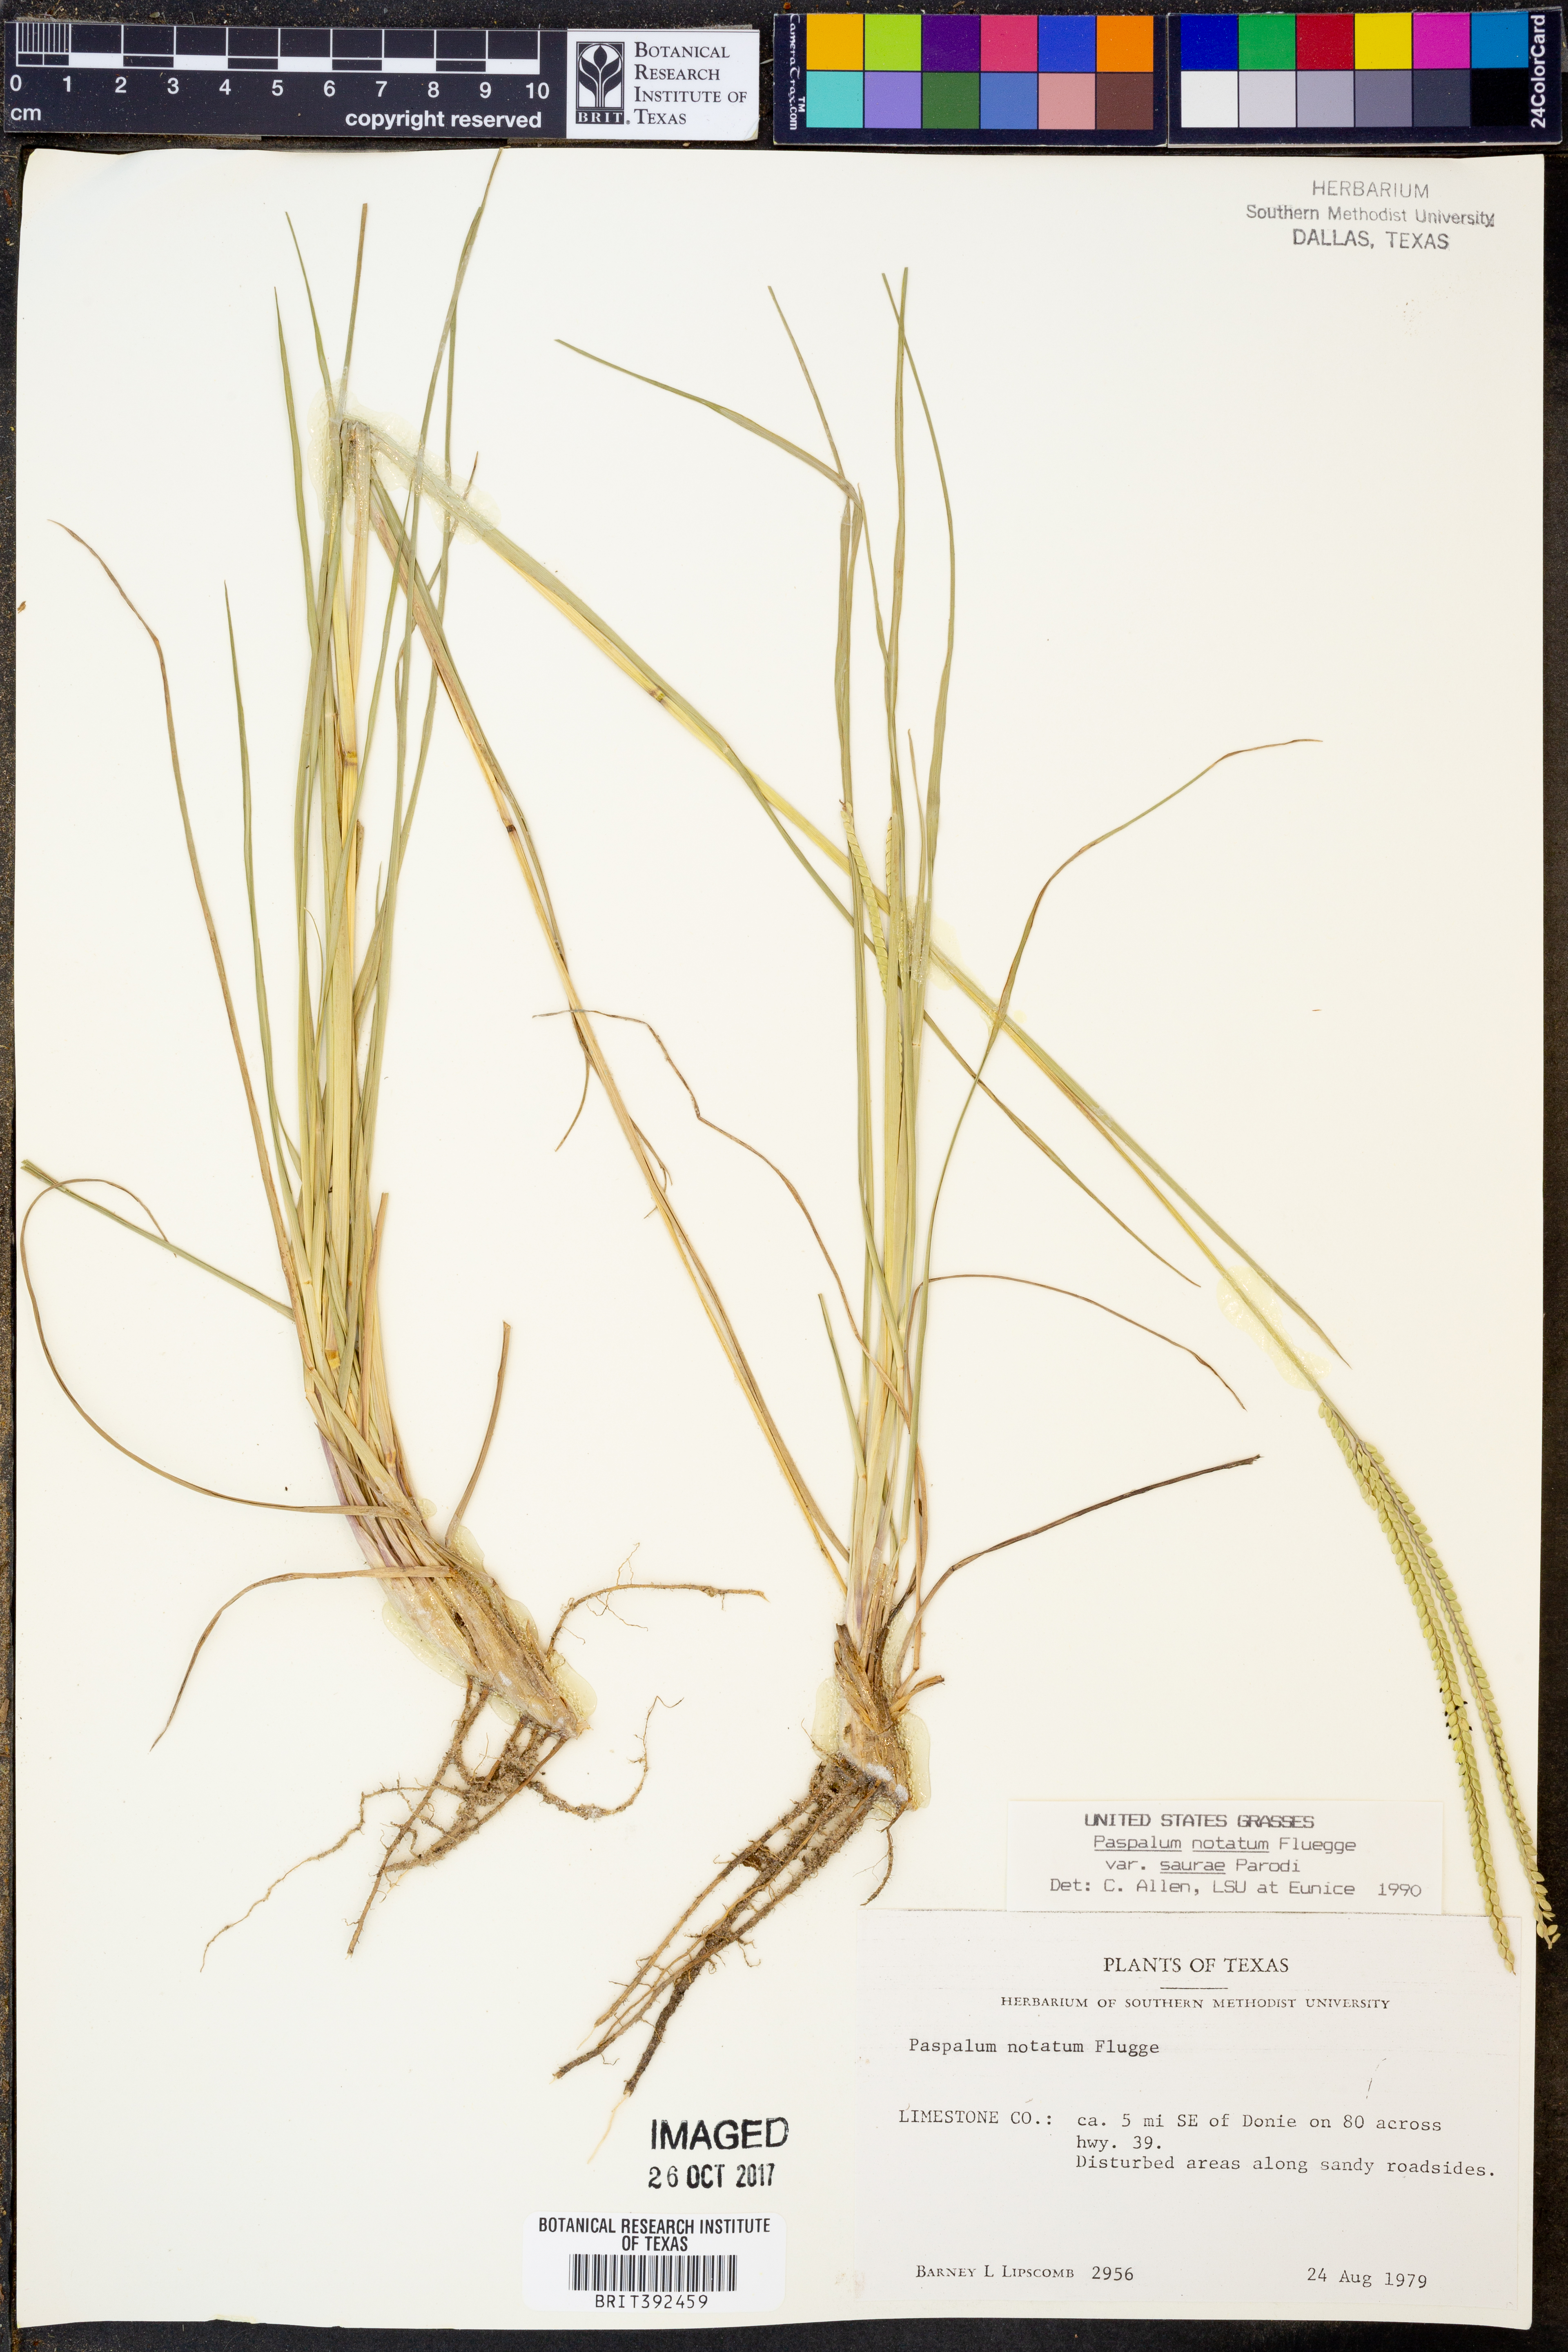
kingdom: Plantae
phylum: Tracheophyta
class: Liliopsida
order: Poales
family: Poaceae
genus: Paspalum
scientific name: Paspalum saurae
